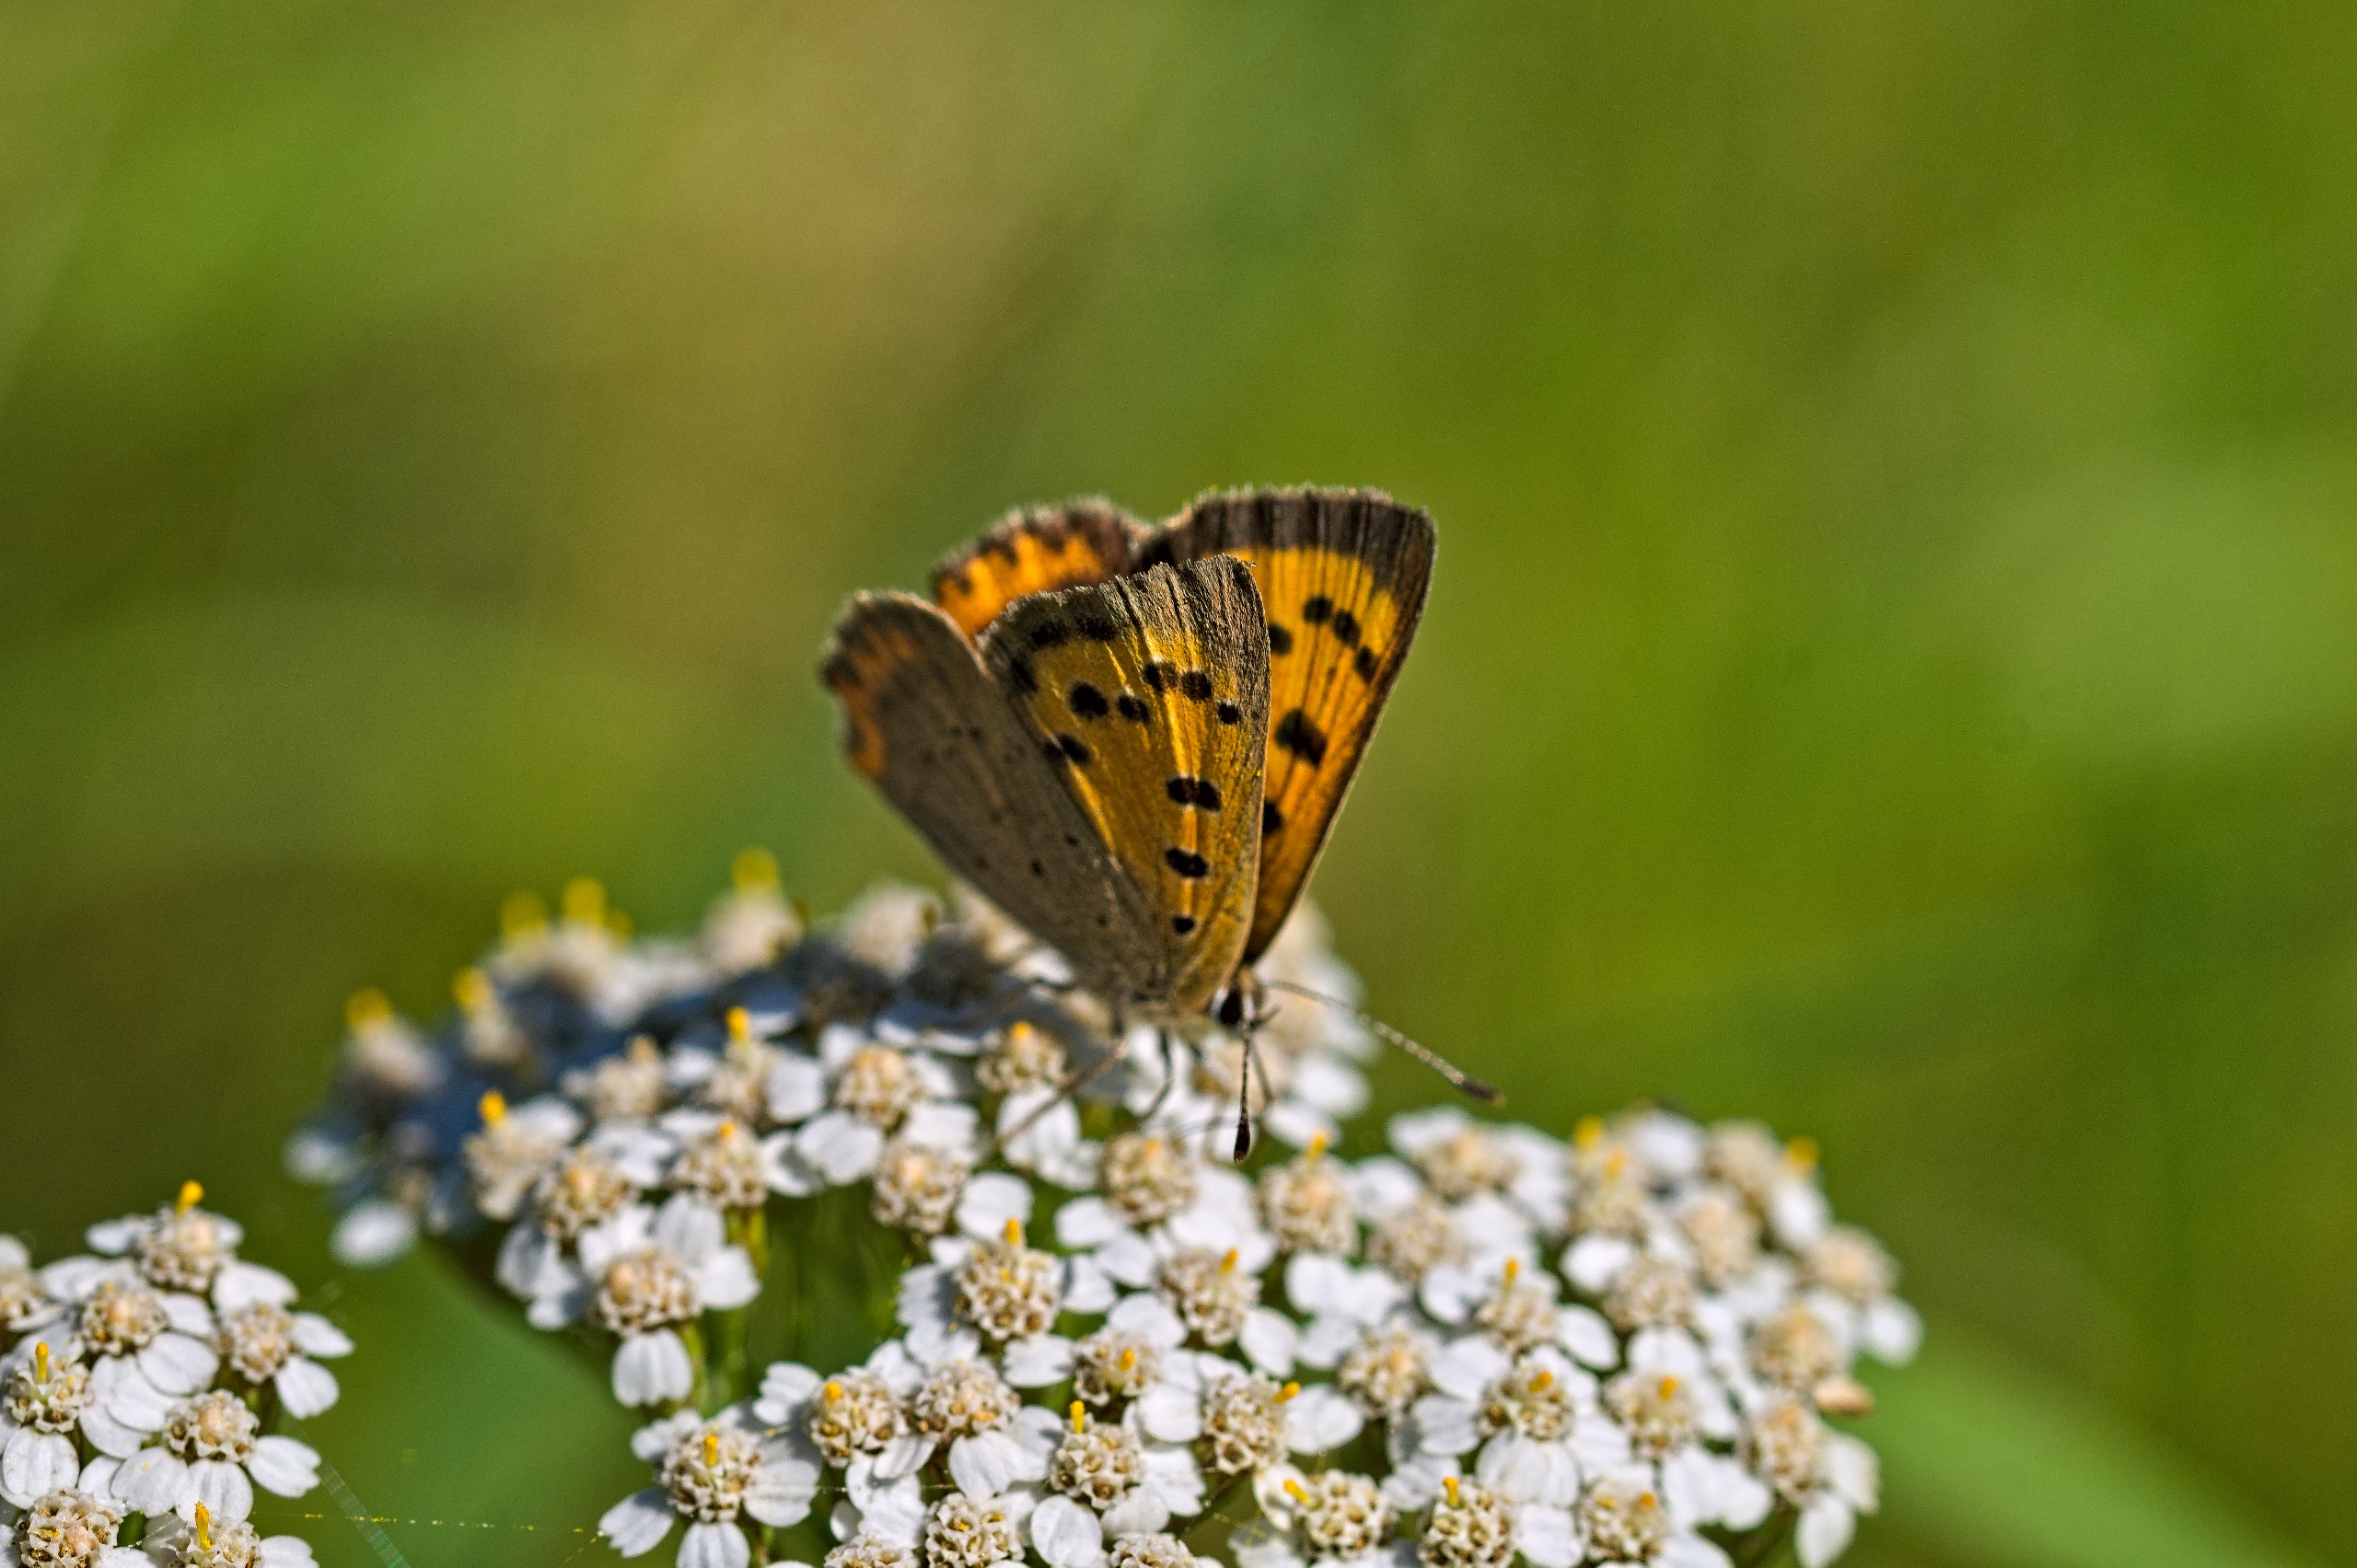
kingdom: Animalia
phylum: Arthropoda
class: Insecta
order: Lepidoptera
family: Lycaenidae
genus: Lycaena
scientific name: Lycaena phlaeas
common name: Lille ildfugl
